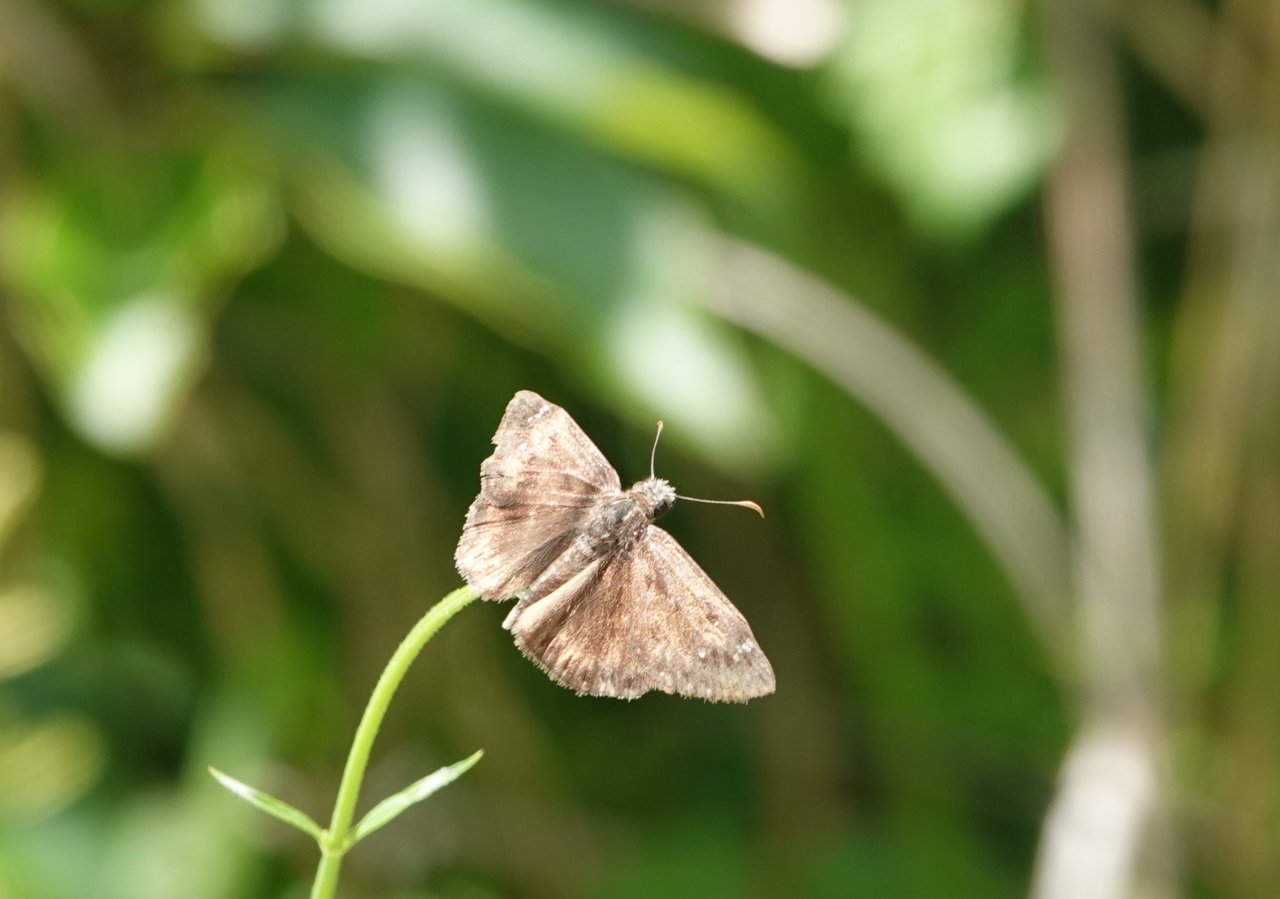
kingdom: Animalia
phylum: Arthropoda
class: Insecta
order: Lepidoptera
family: Hesperiidae
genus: Gesta
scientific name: Gesta
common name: Horace's Duskywing
